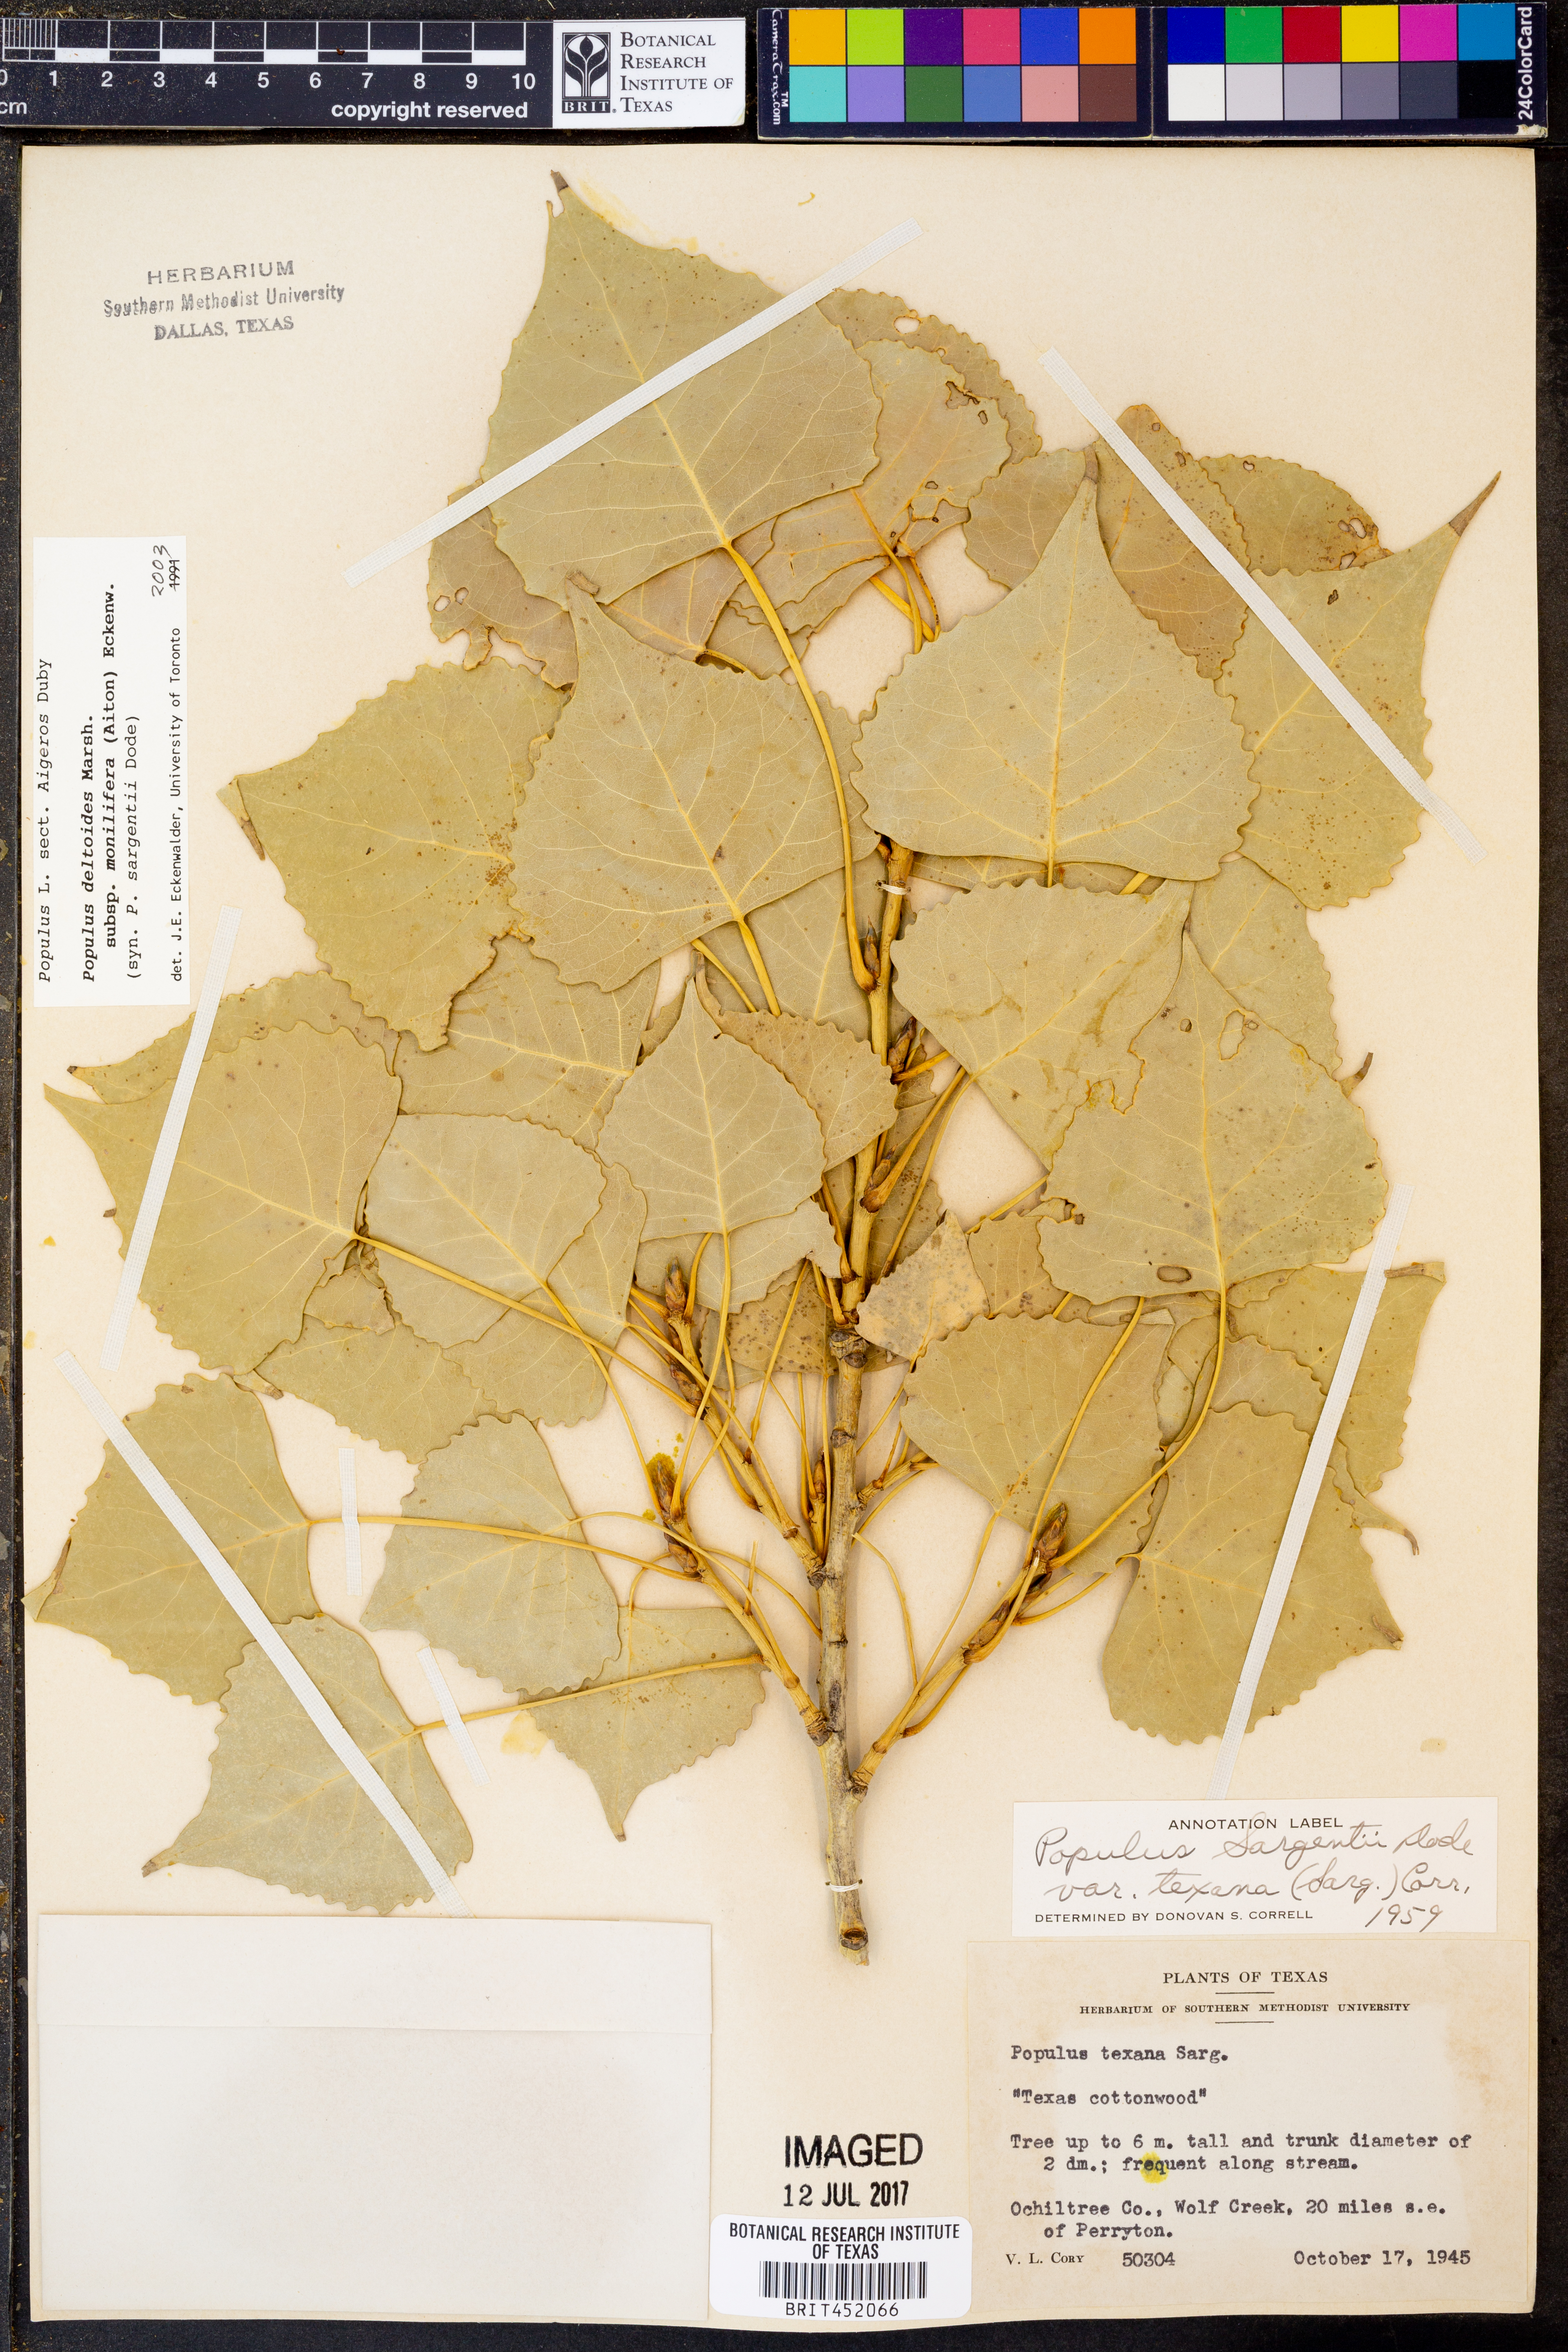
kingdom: Plantae
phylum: Tracheophyta
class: Magnoliopsida
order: Malpighiales
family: Salicaceae
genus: Populus
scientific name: Populus deltoides
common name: Eastern cottonwood
